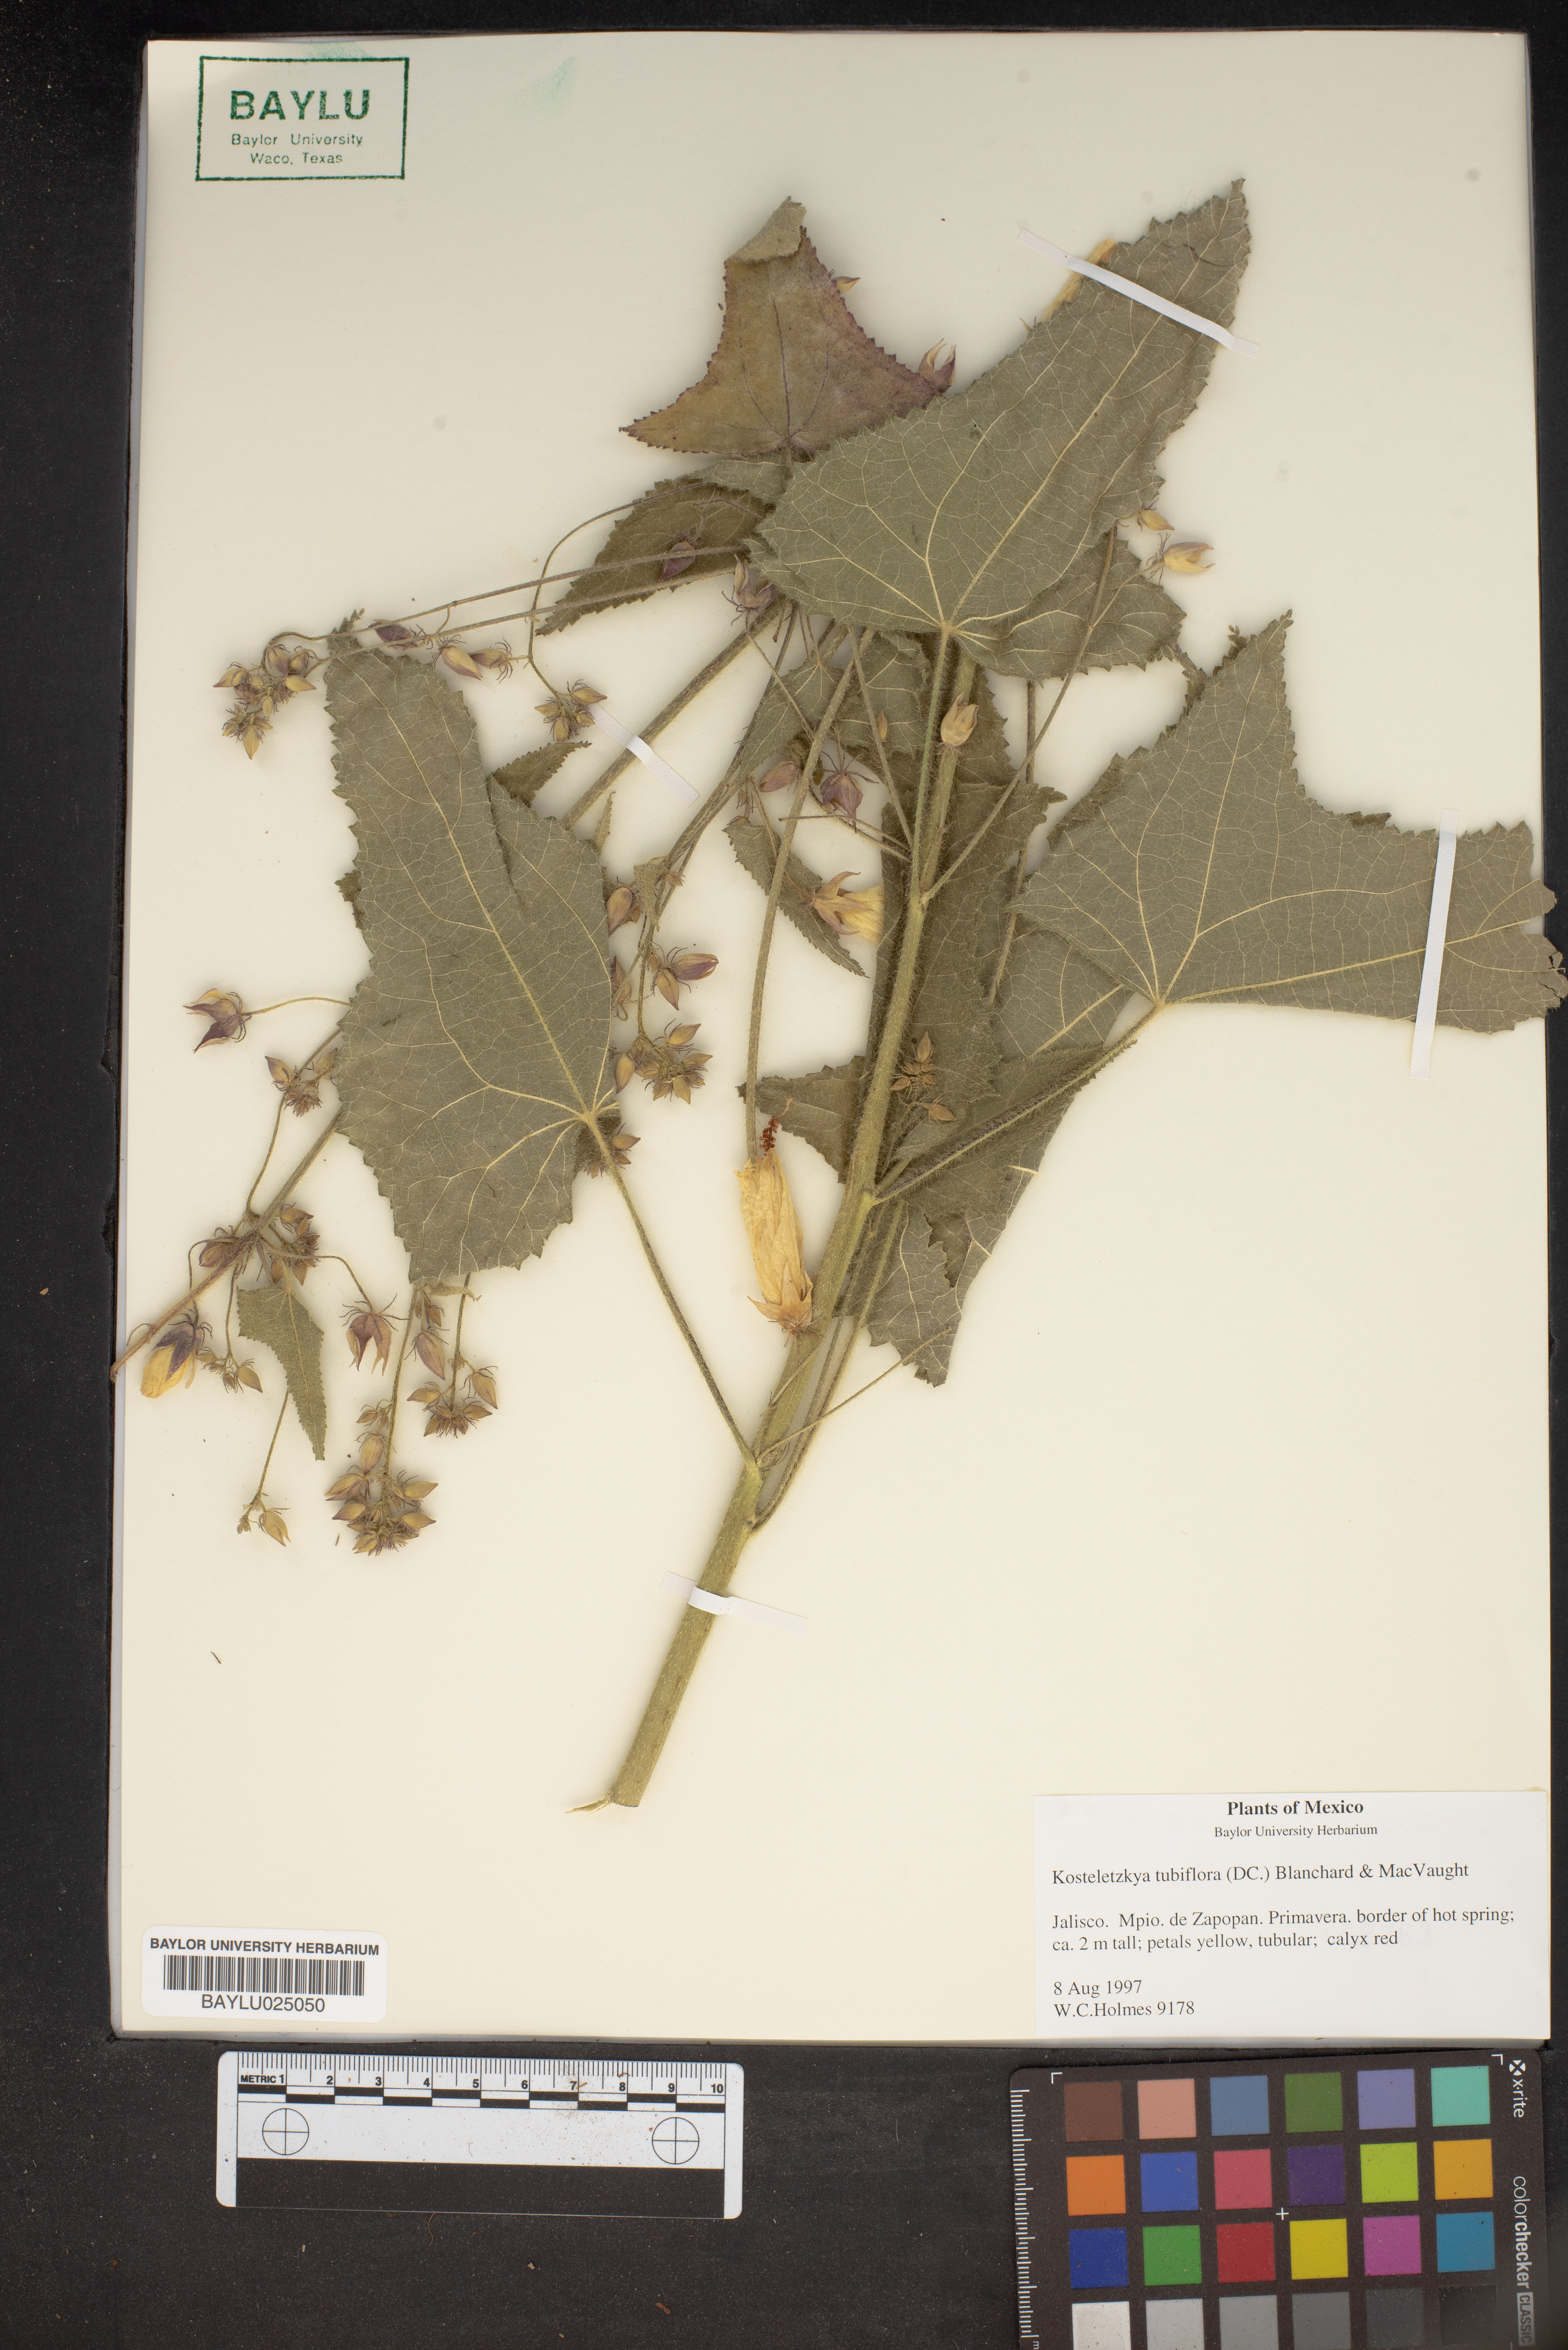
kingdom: Plantae
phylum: Tracheophyta
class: Magnoliopsida
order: Malvales
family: Malvaceae
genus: Kosteletzkya
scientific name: Kosteletzkya
